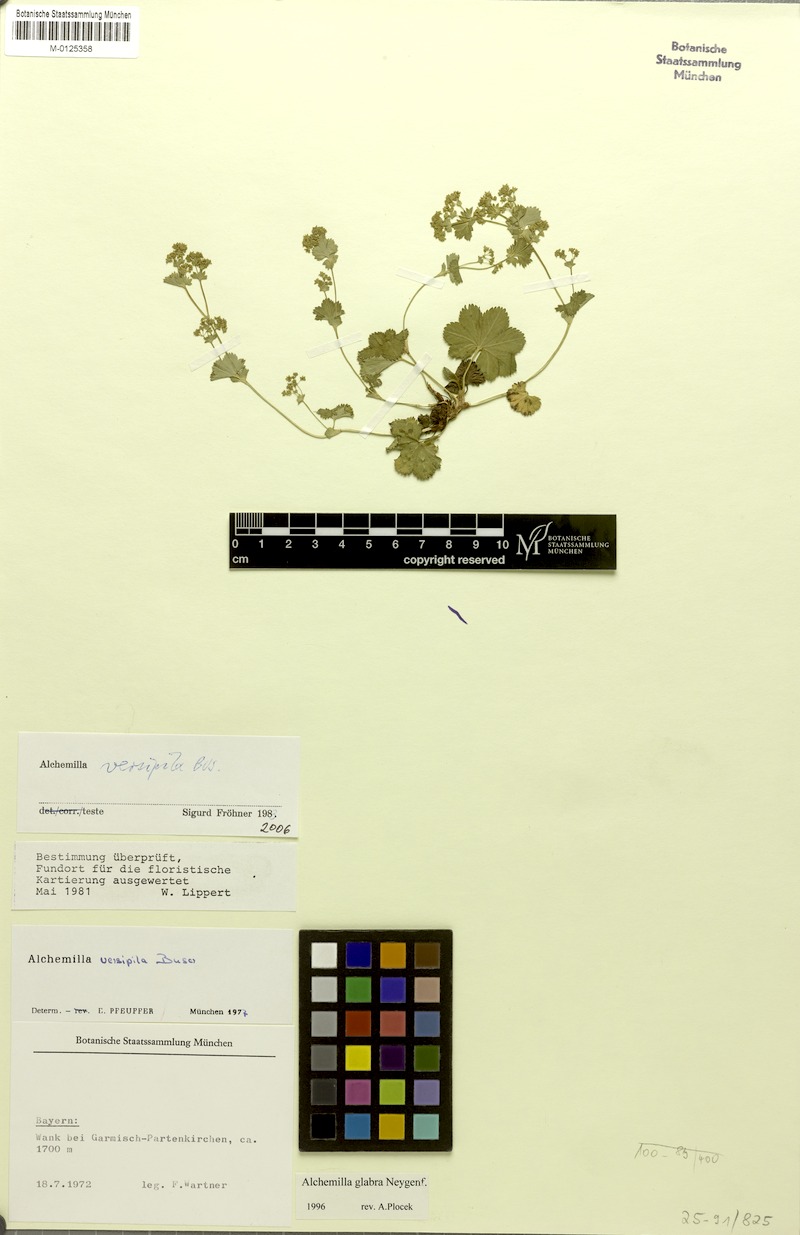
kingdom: Plantae
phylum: Tracheophyta
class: Magnoliopsida
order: Rosales
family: Rosaceae
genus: Alchemilla
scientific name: Alchemilla versipila
